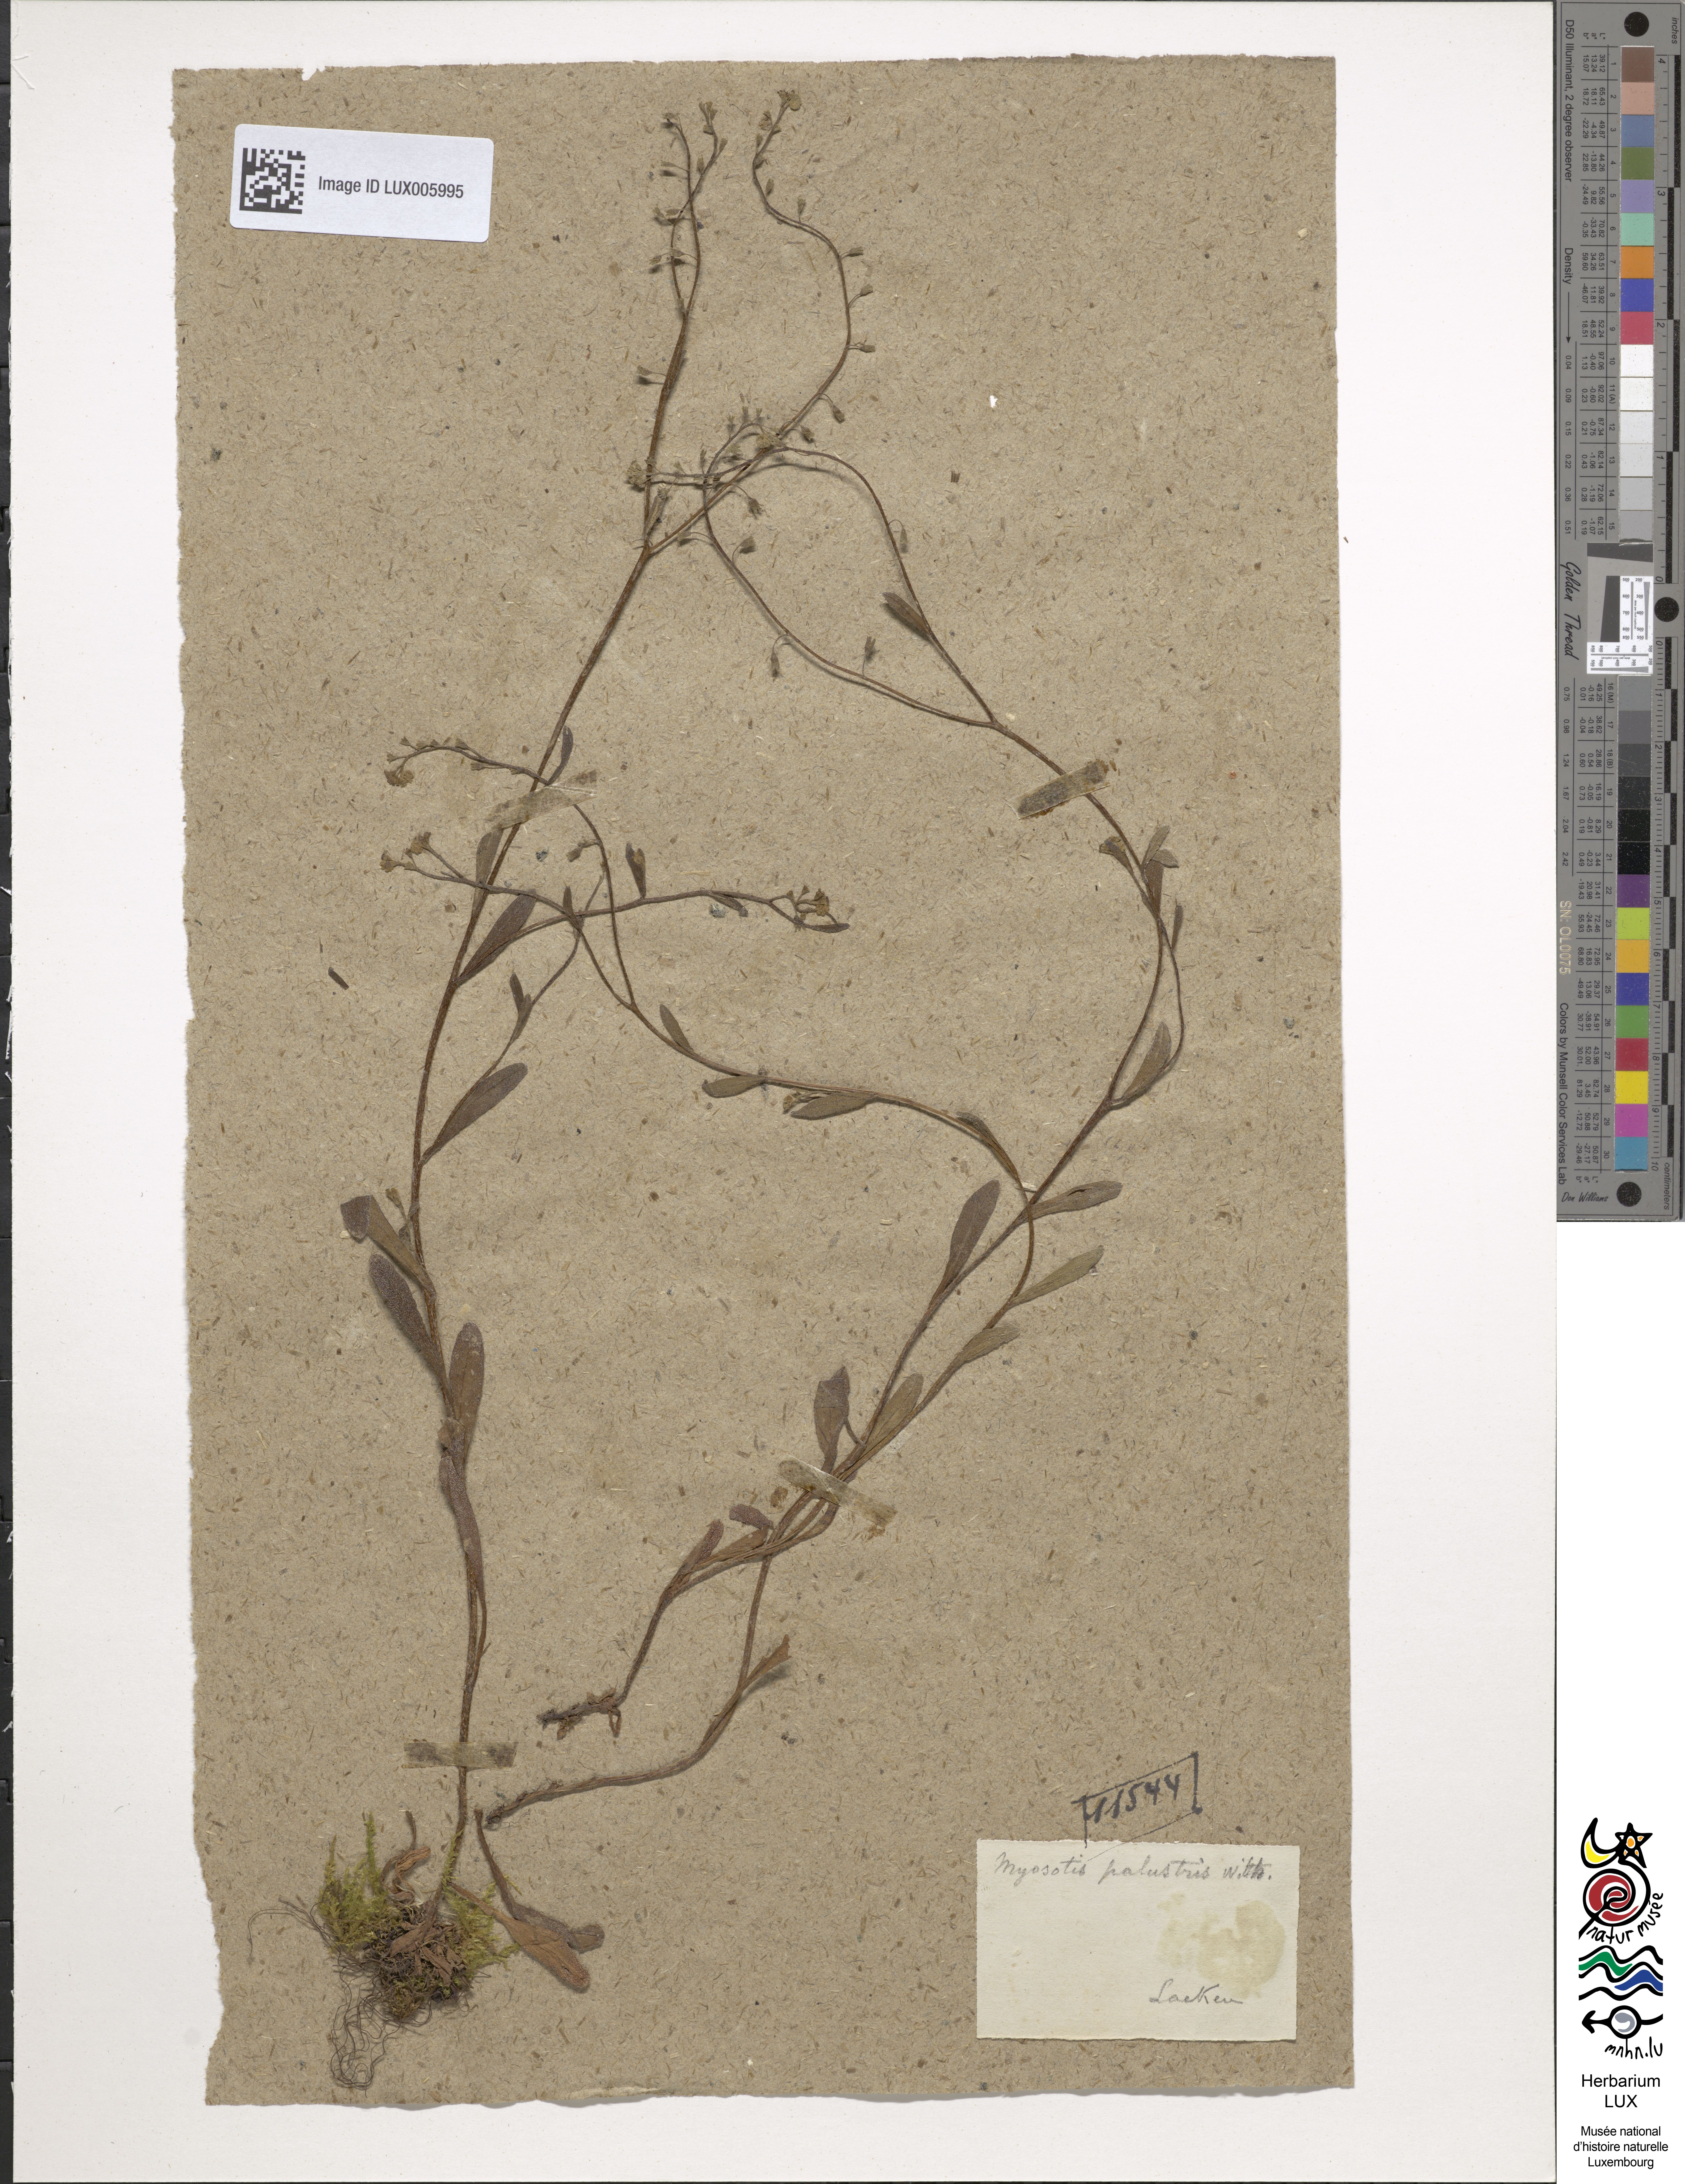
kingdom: Plantae
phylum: Tracheophyta
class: Magnoliopsida
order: Boraginales
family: Boraginaceae
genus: Myosotis
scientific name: Myosotis scorpioides
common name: Water forget-me-not
